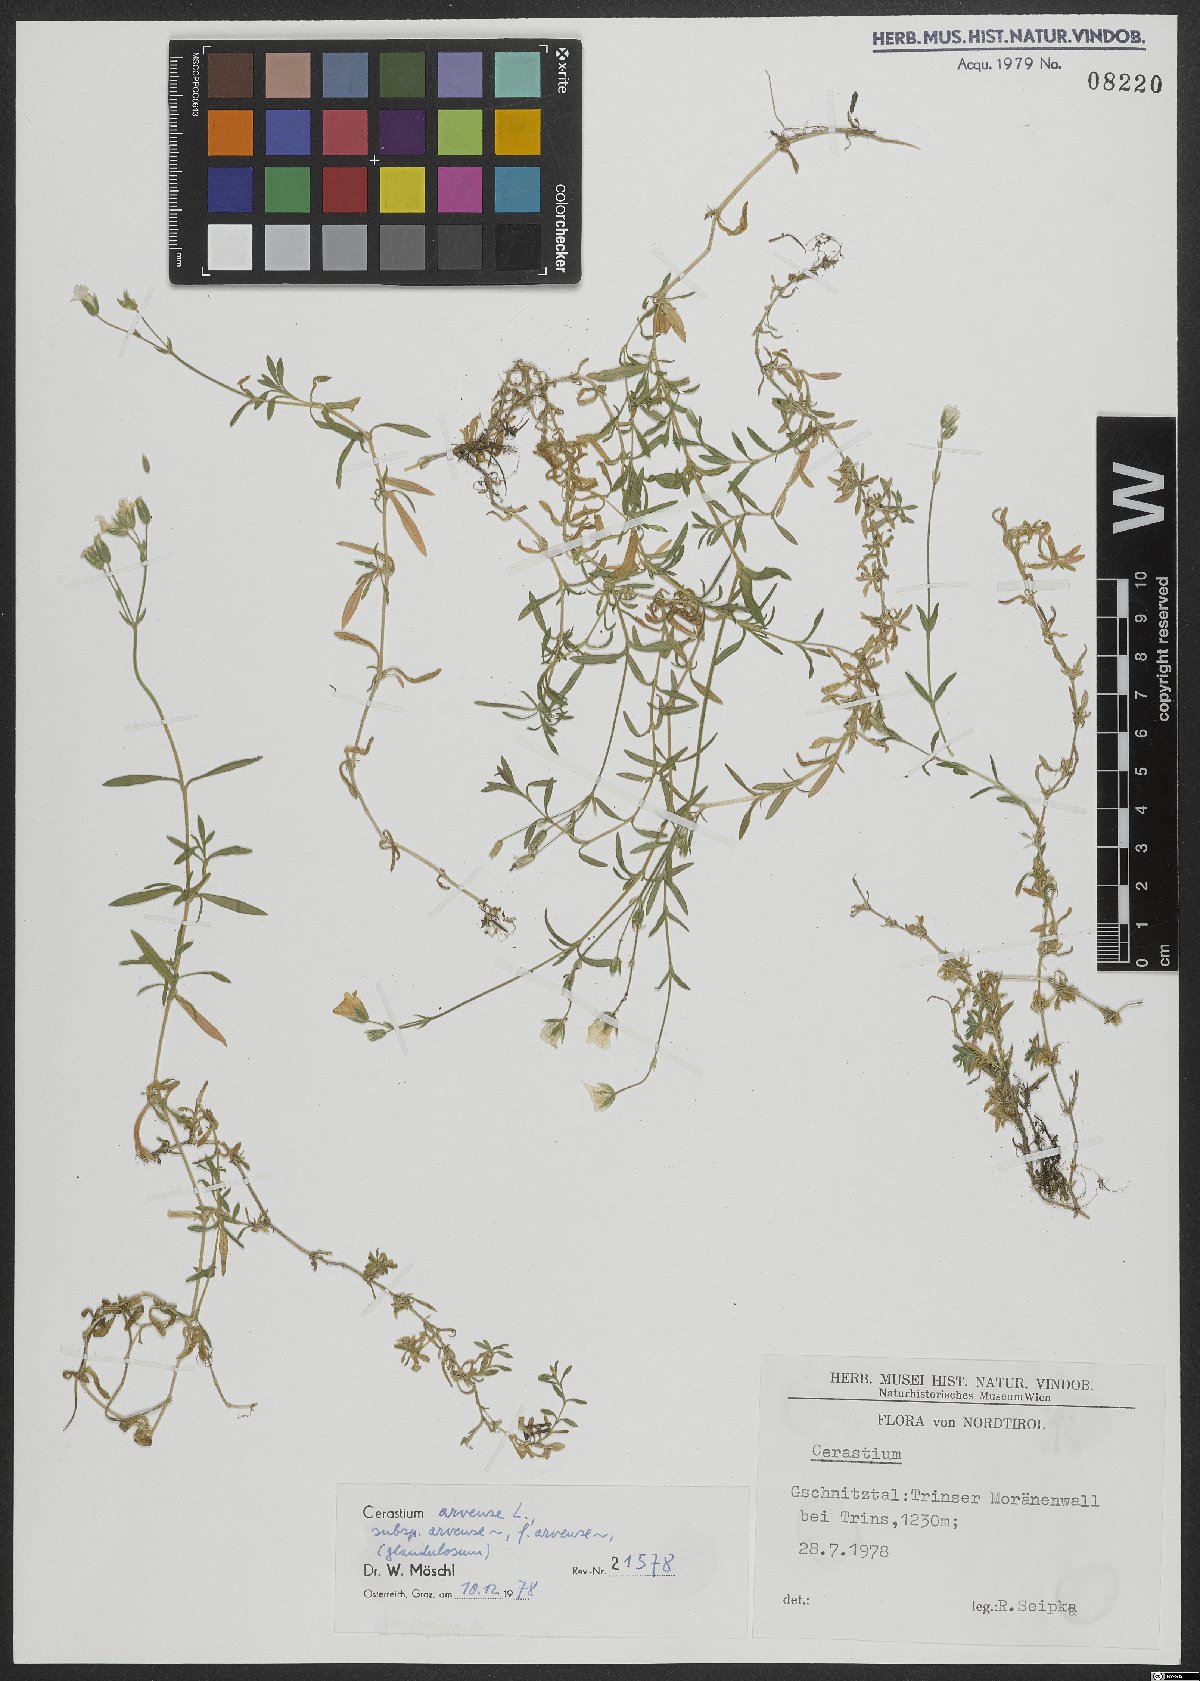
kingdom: Plantae
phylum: Tracheophyta
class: Magnoliopsida
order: Caryophyllales
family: Caryophyllaceae
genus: Cerastium
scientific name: Cerastium arvense
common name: Field mouse-ear
